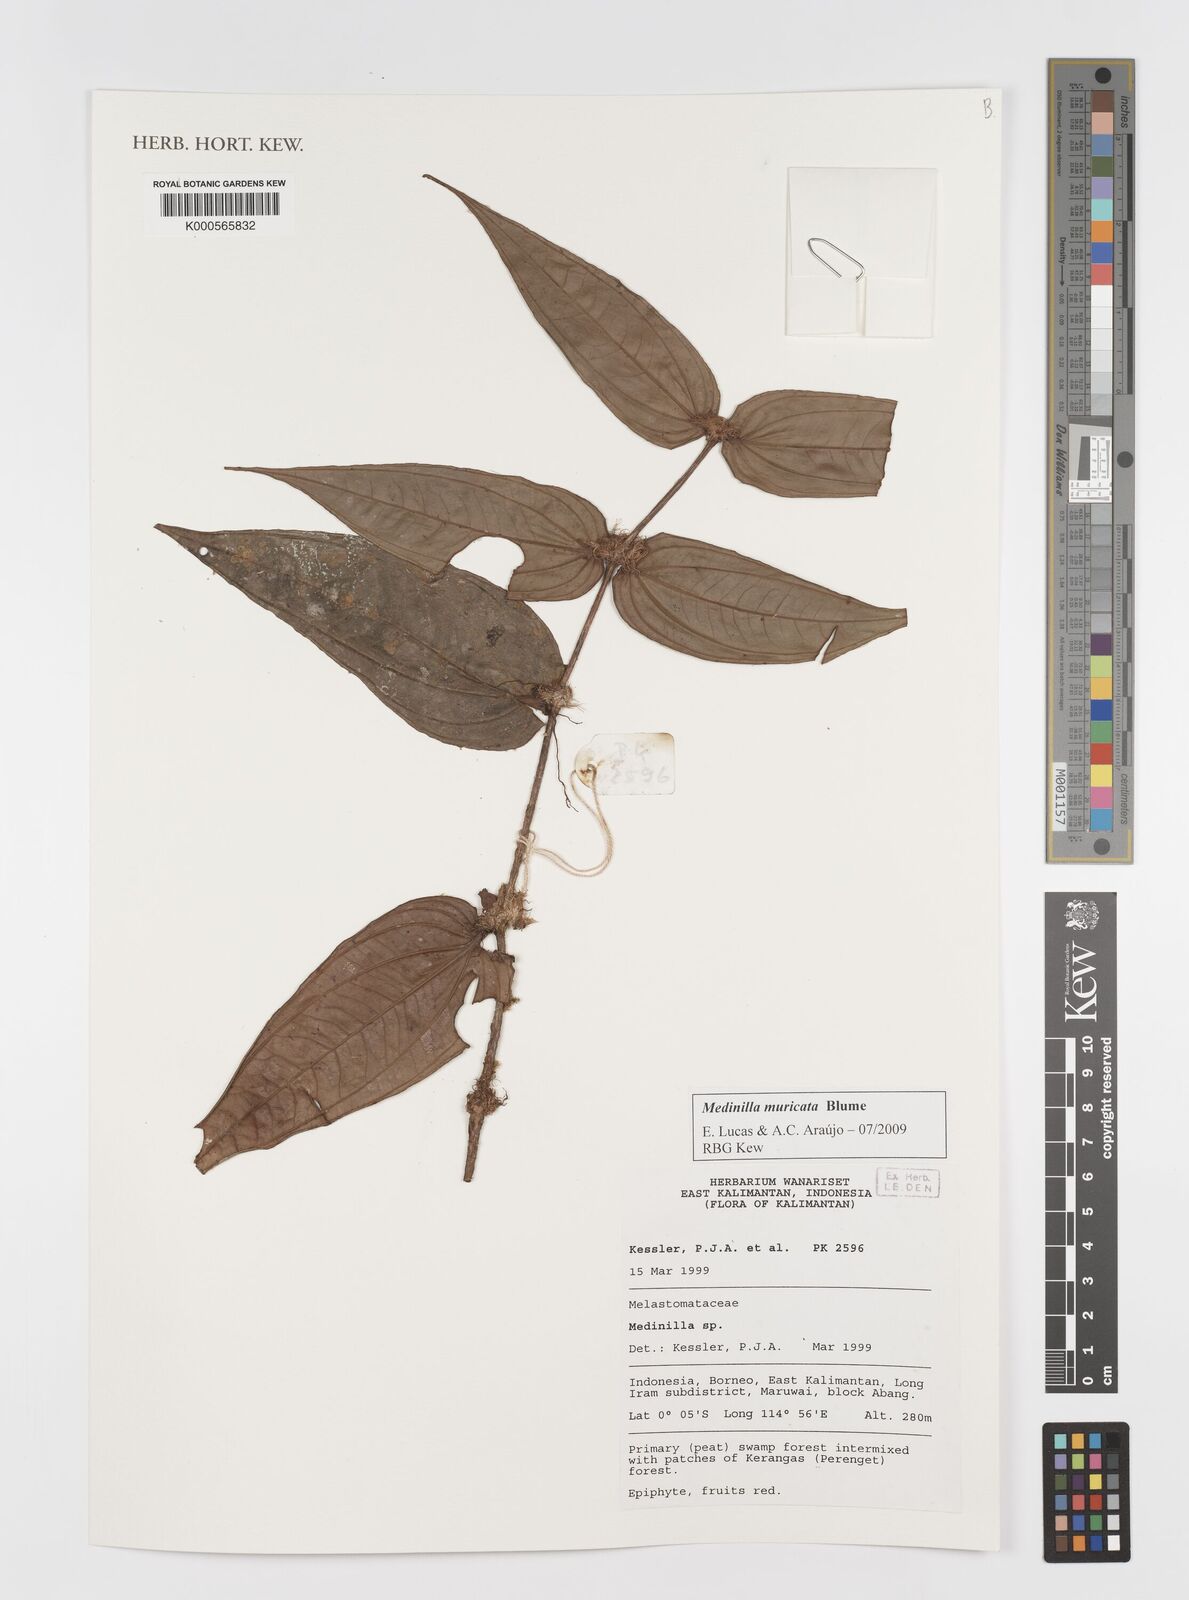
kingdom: Plantae
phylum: Tracheophyta
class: Magnoliopsida
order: Myrtales
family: Melastomataceae
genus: Medinilla
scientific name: Medinilla muricata
